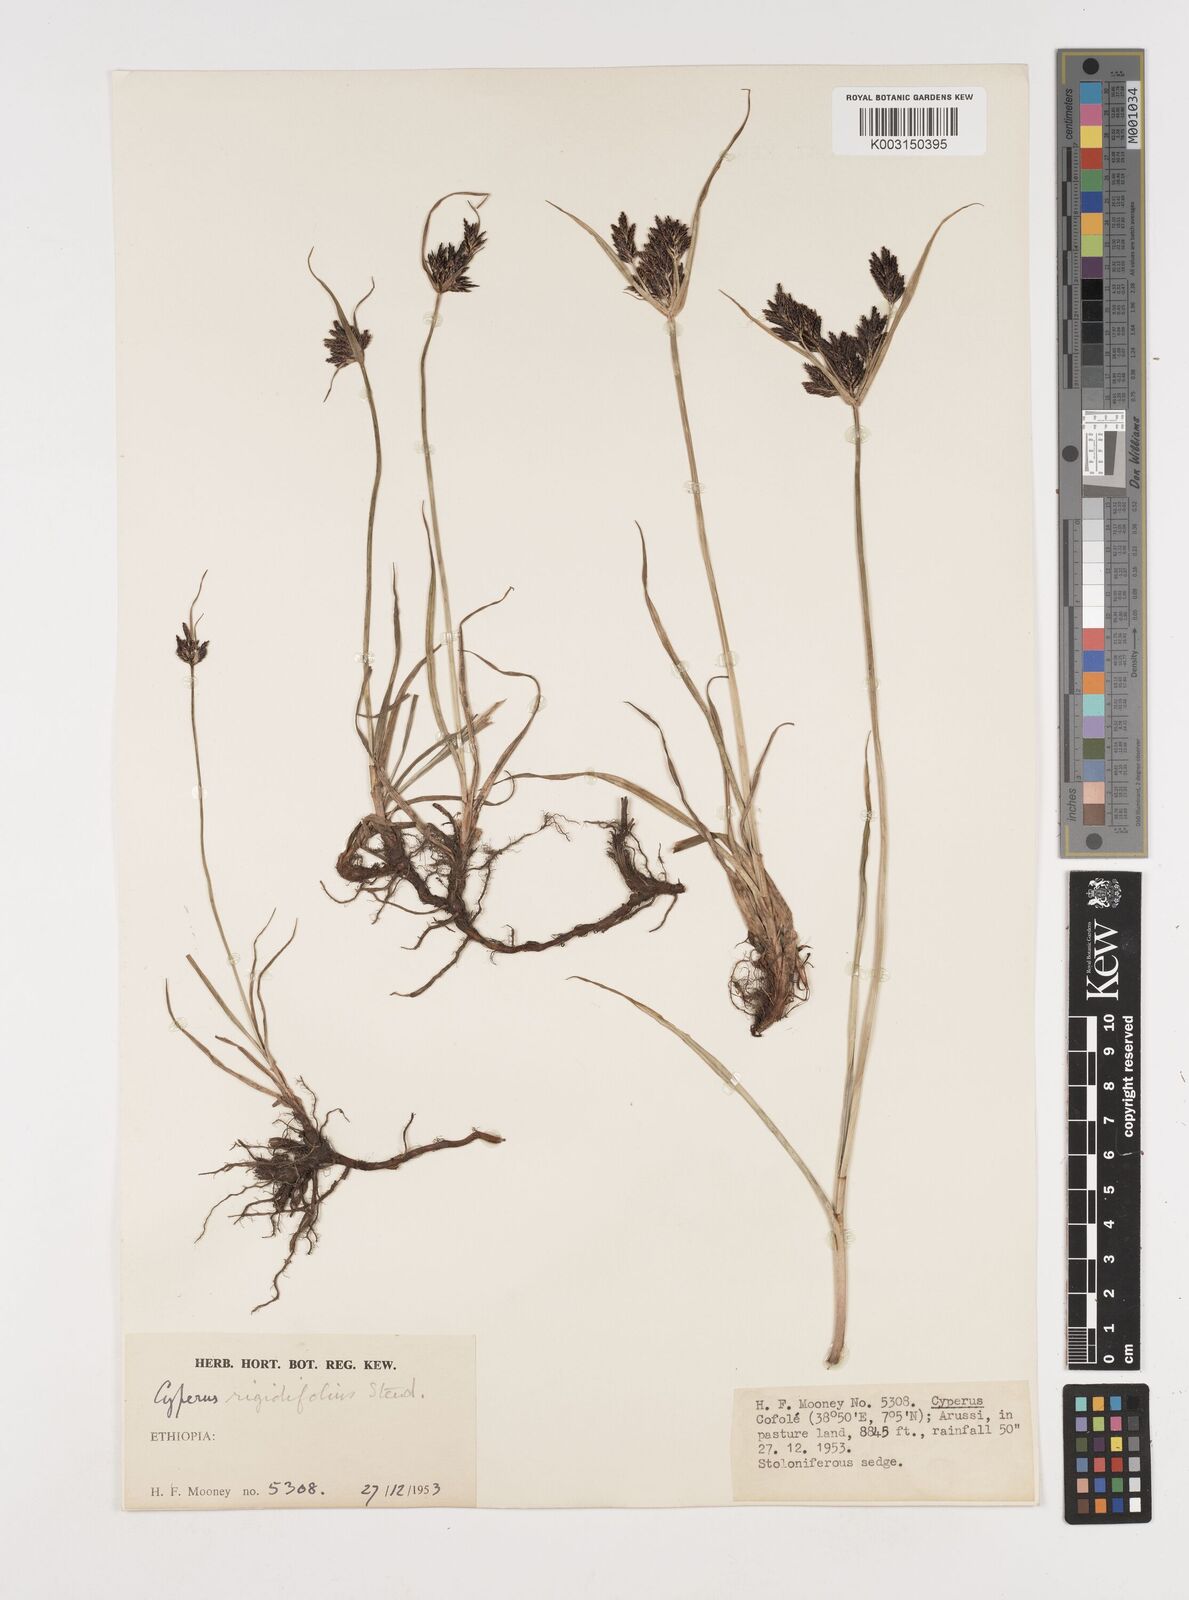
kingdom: Plantae
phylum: Tracheophyta
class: Liliopsida
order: Poales
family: Cyperaceae
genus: Cyperus
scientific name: Cyperus rigidifolius
